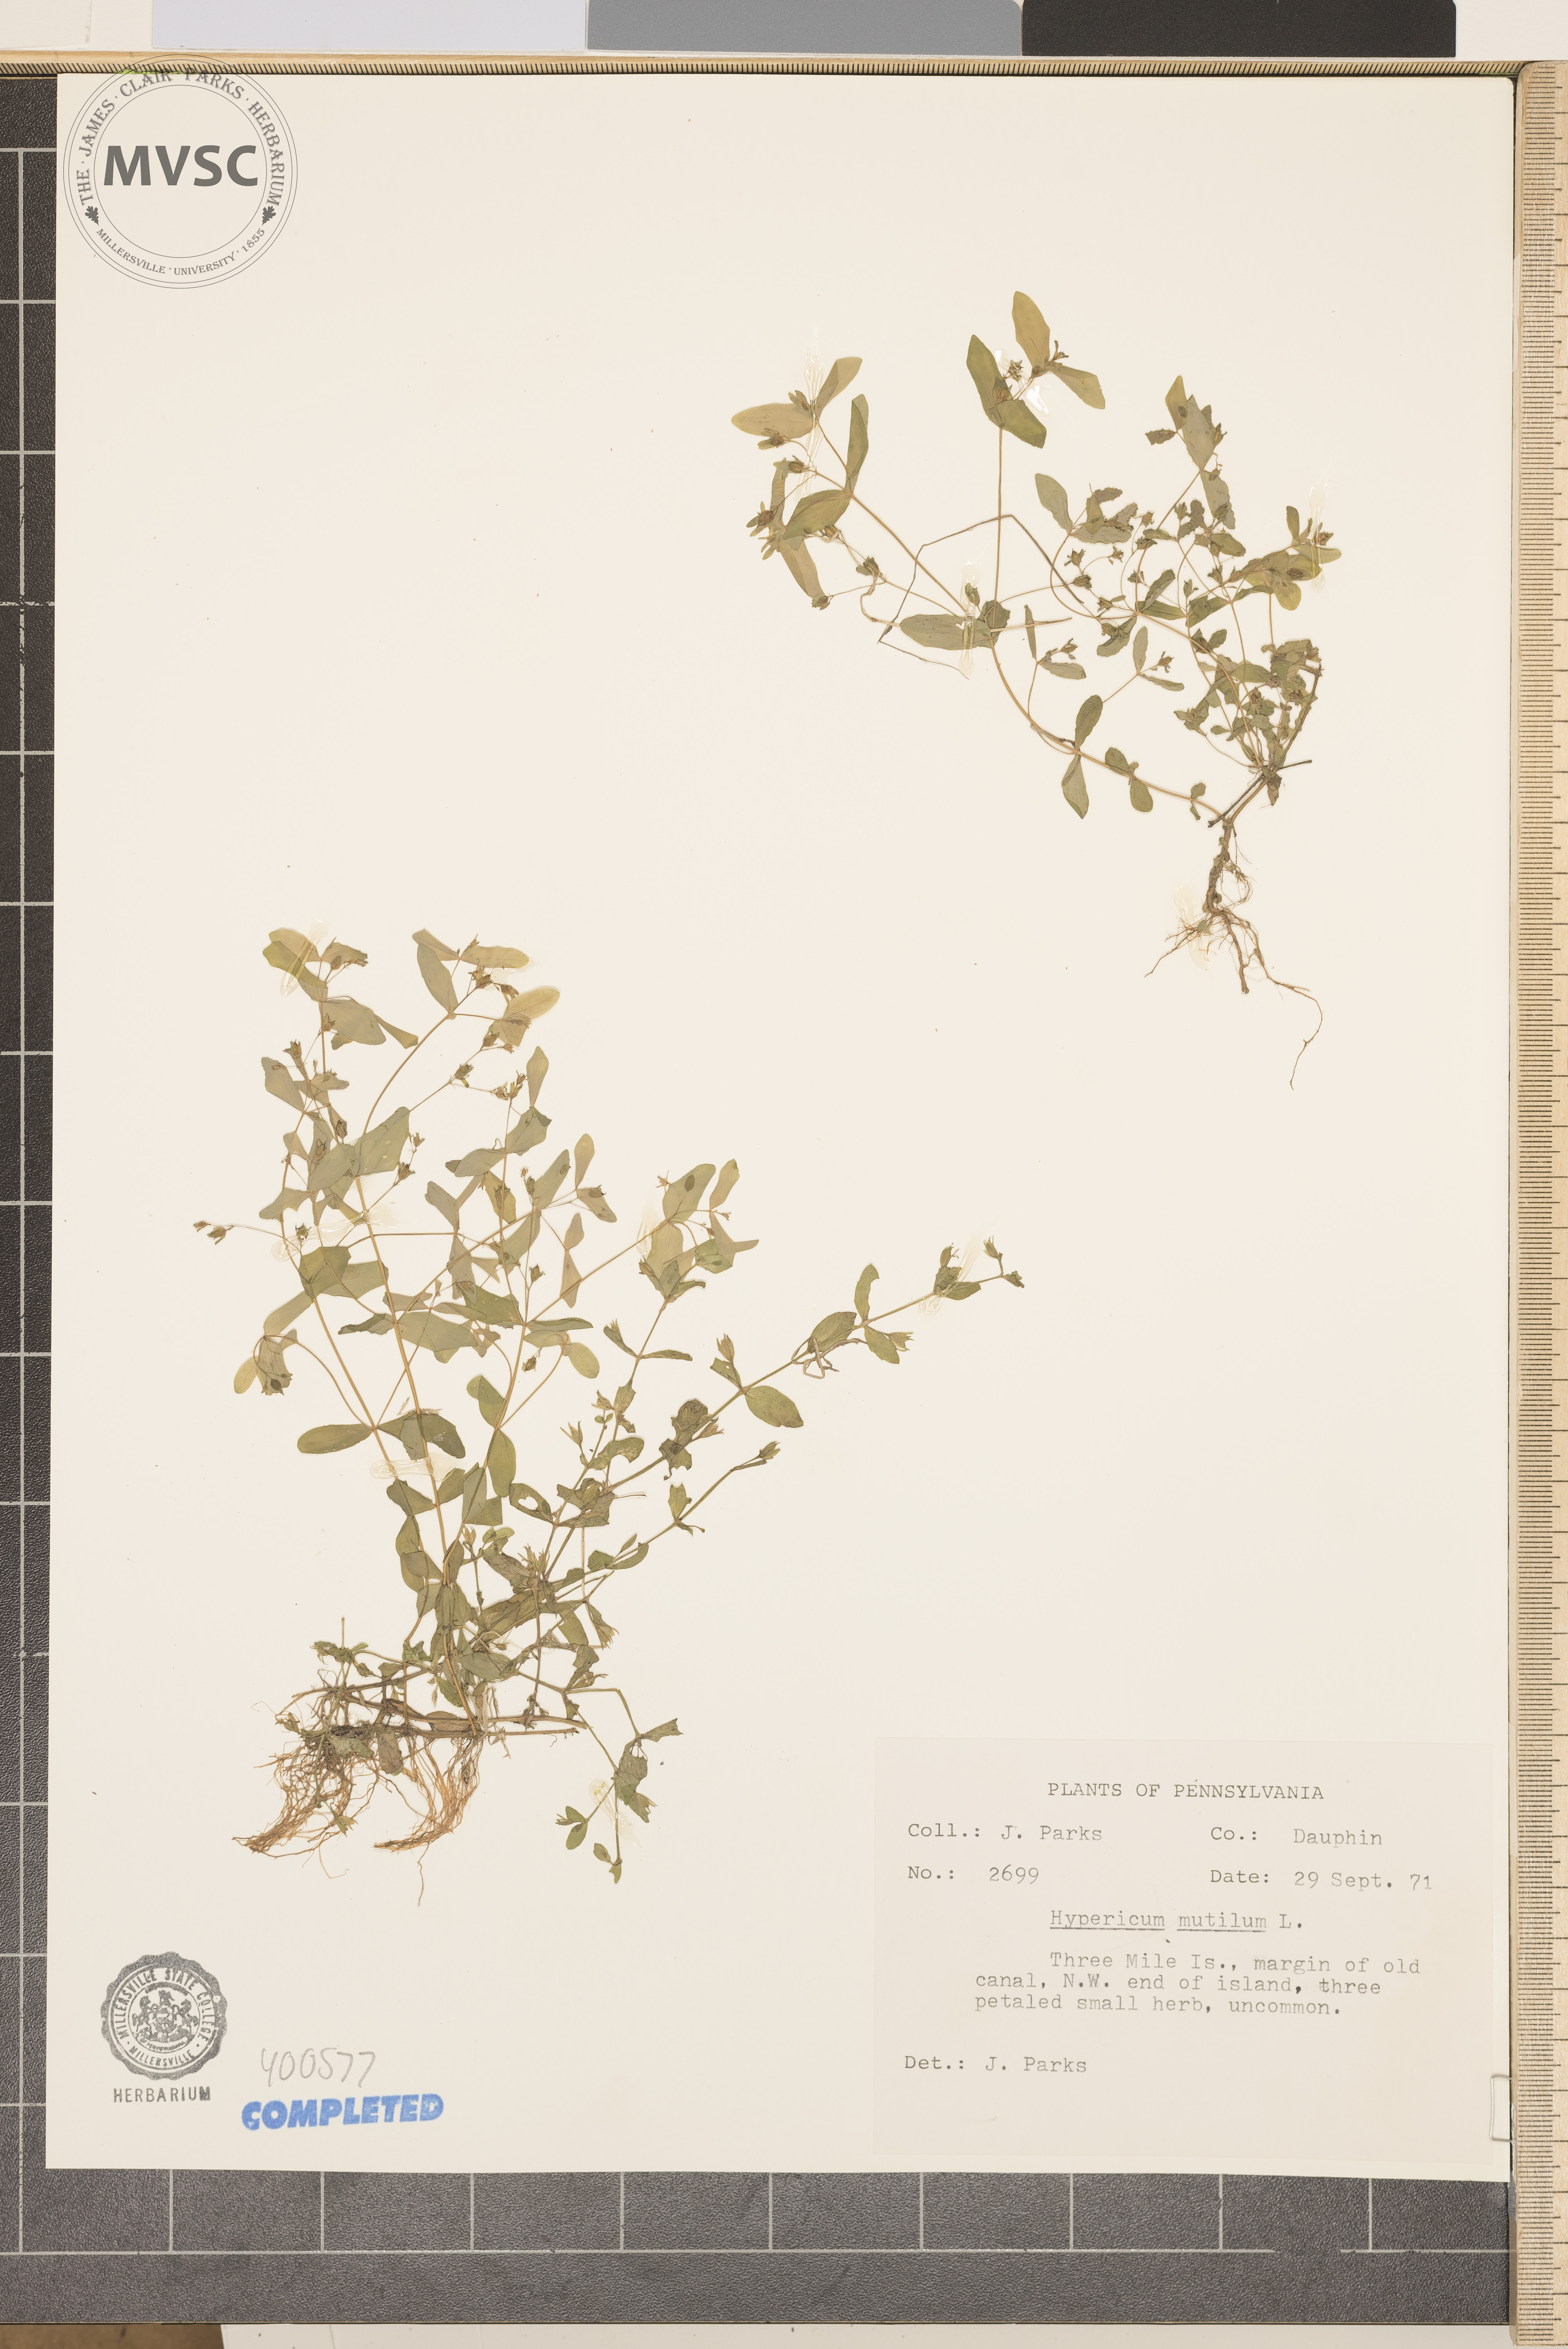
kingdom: Plantae
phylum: Tracheophyta
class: Magnoliopsida
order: Malpighiales
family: Hypericaceae
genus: Hypericum
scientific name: Hypericum mutilum
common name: Dwarf St. John's-wort
